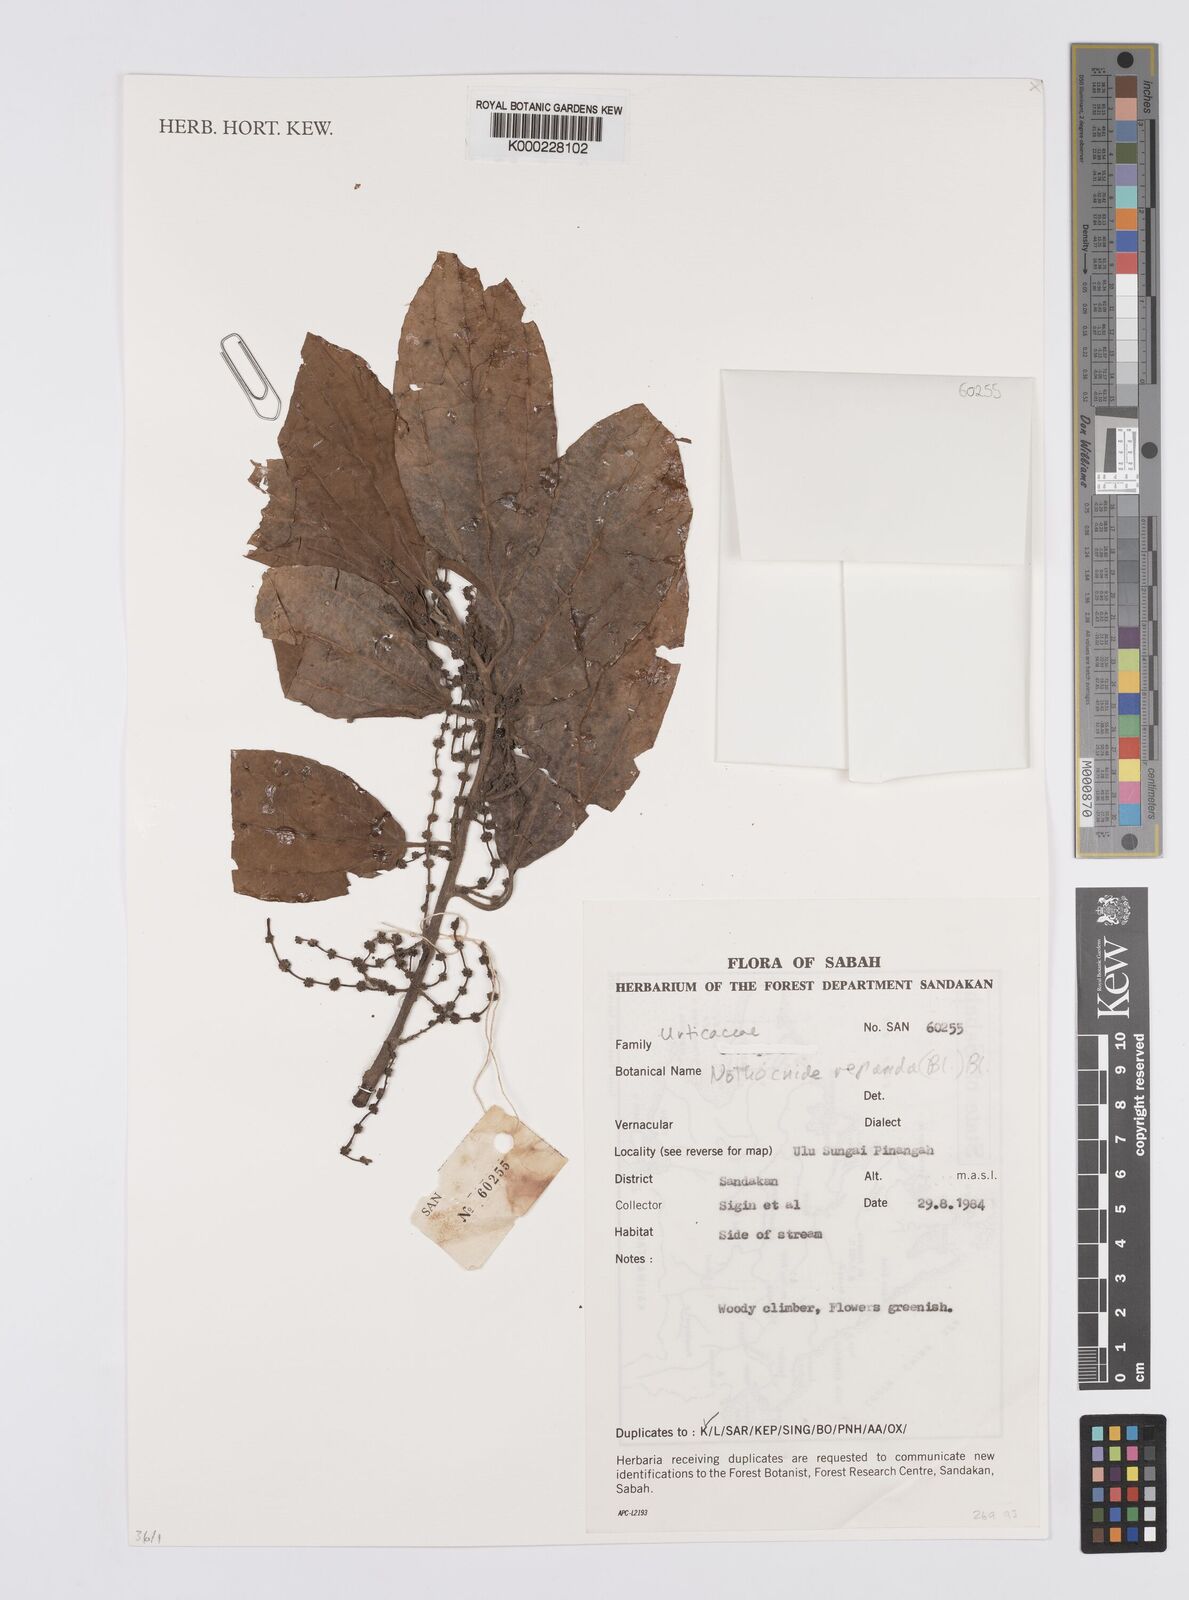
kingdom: Plantae
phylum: Tracheophyta
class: Magnoliopsida
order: Rosales
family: Urticaceae
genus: Nothocnide
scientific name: Nothocnide
